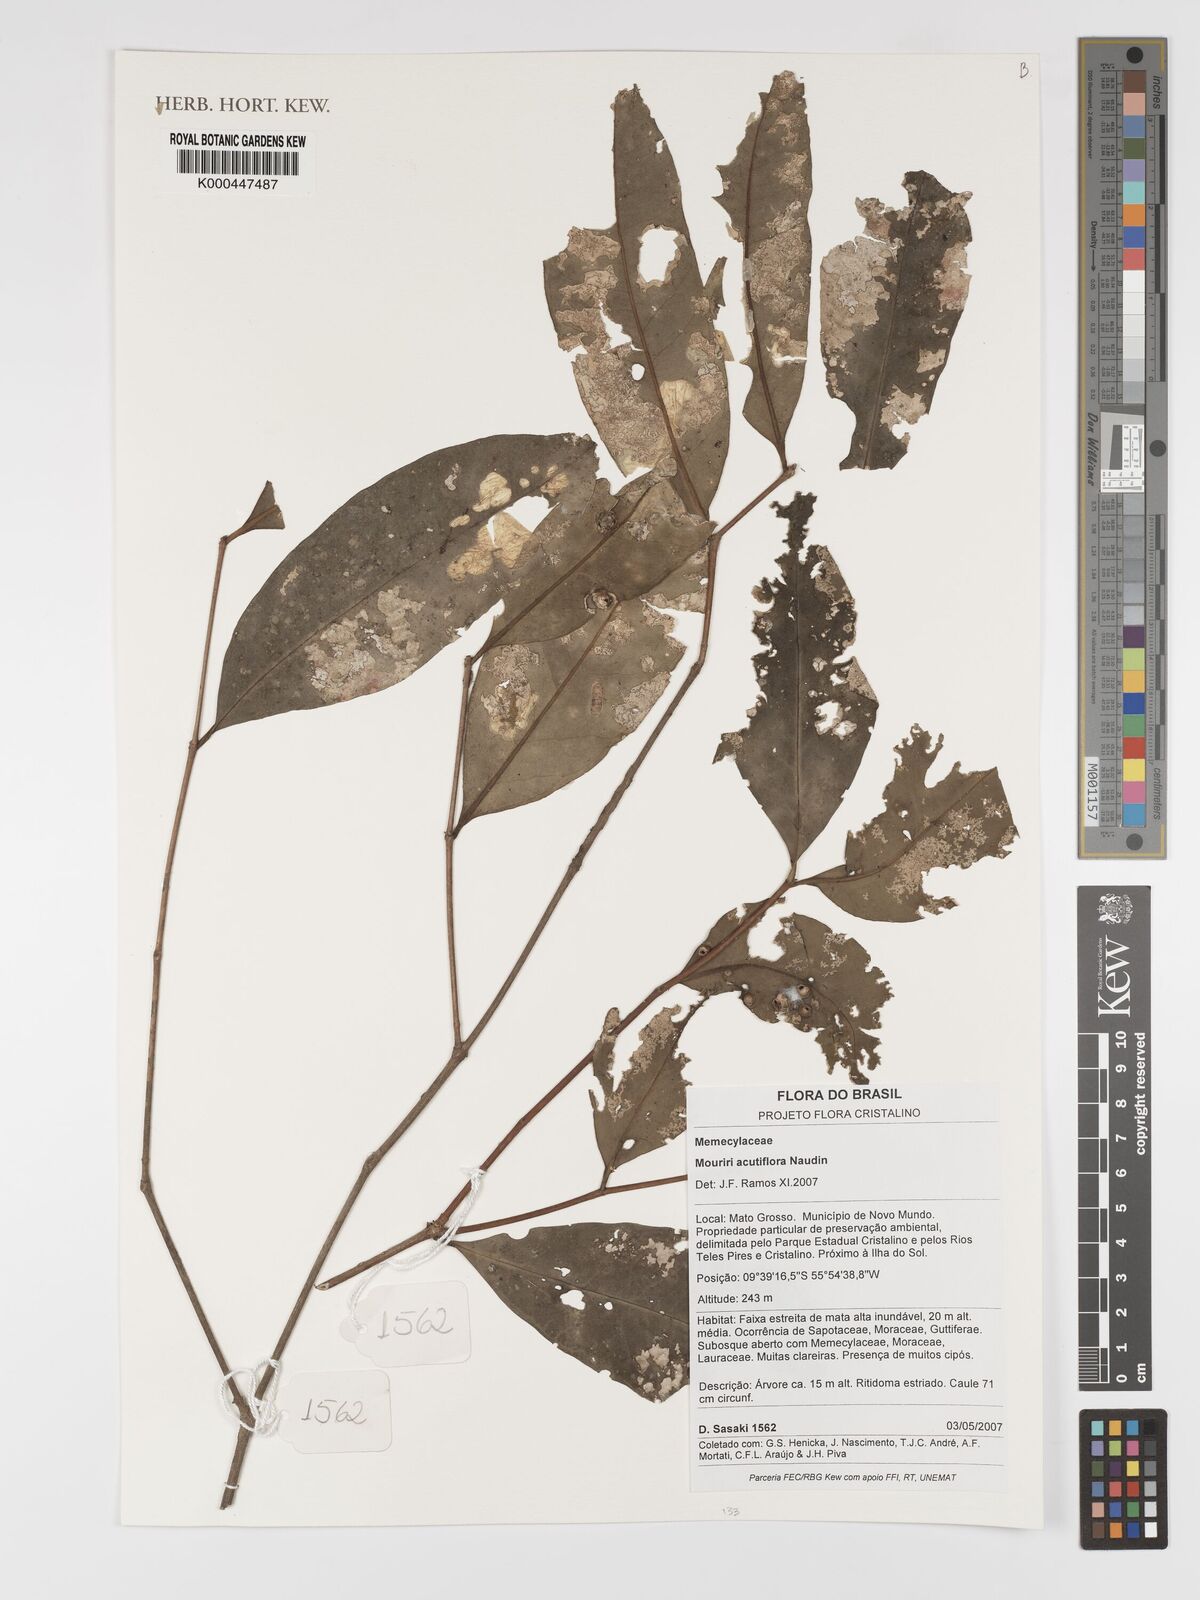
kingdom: Plantae
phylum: Tracheophyta
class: Magnoliopsida
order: Myrtales
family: Melastomataceae
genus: Mouriri
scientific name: Mouriri acutiflora
